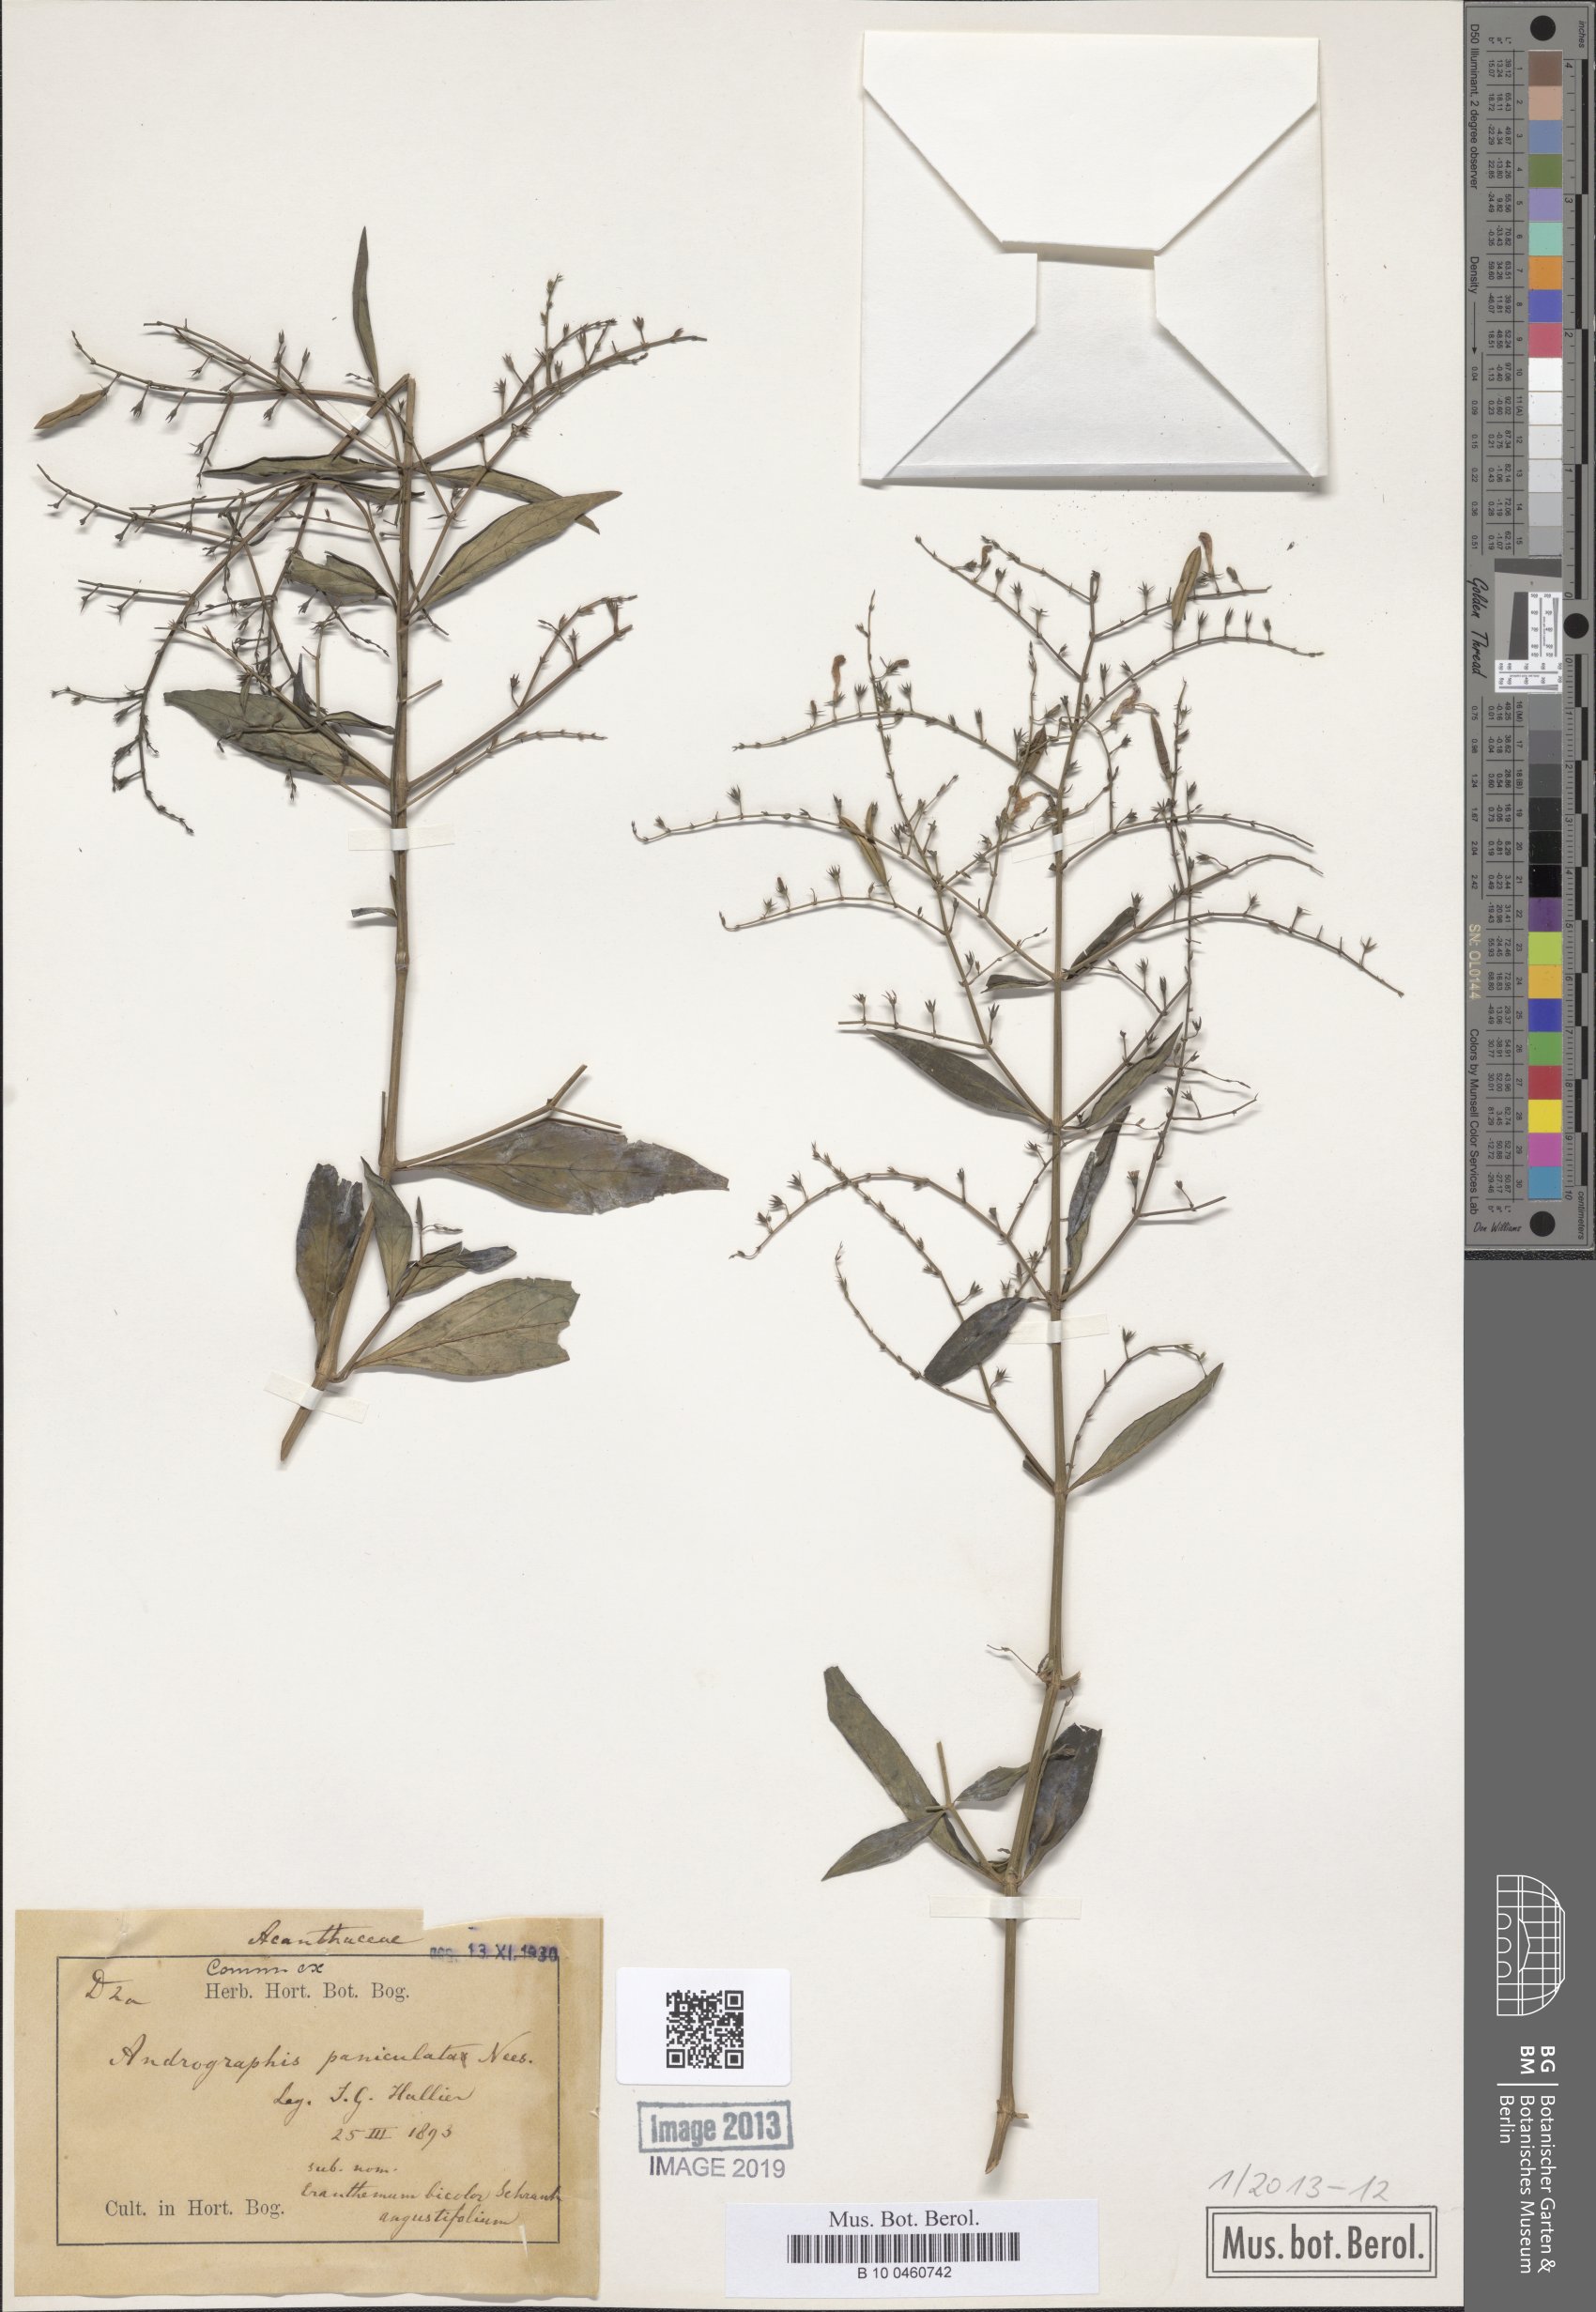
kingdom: Plantae
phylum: Tracheophyta
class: Magnoliopsida
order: Lamiales
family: Acanthaceae
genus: Andrographis
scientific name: Andrographis paniculata
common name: Green chireta
